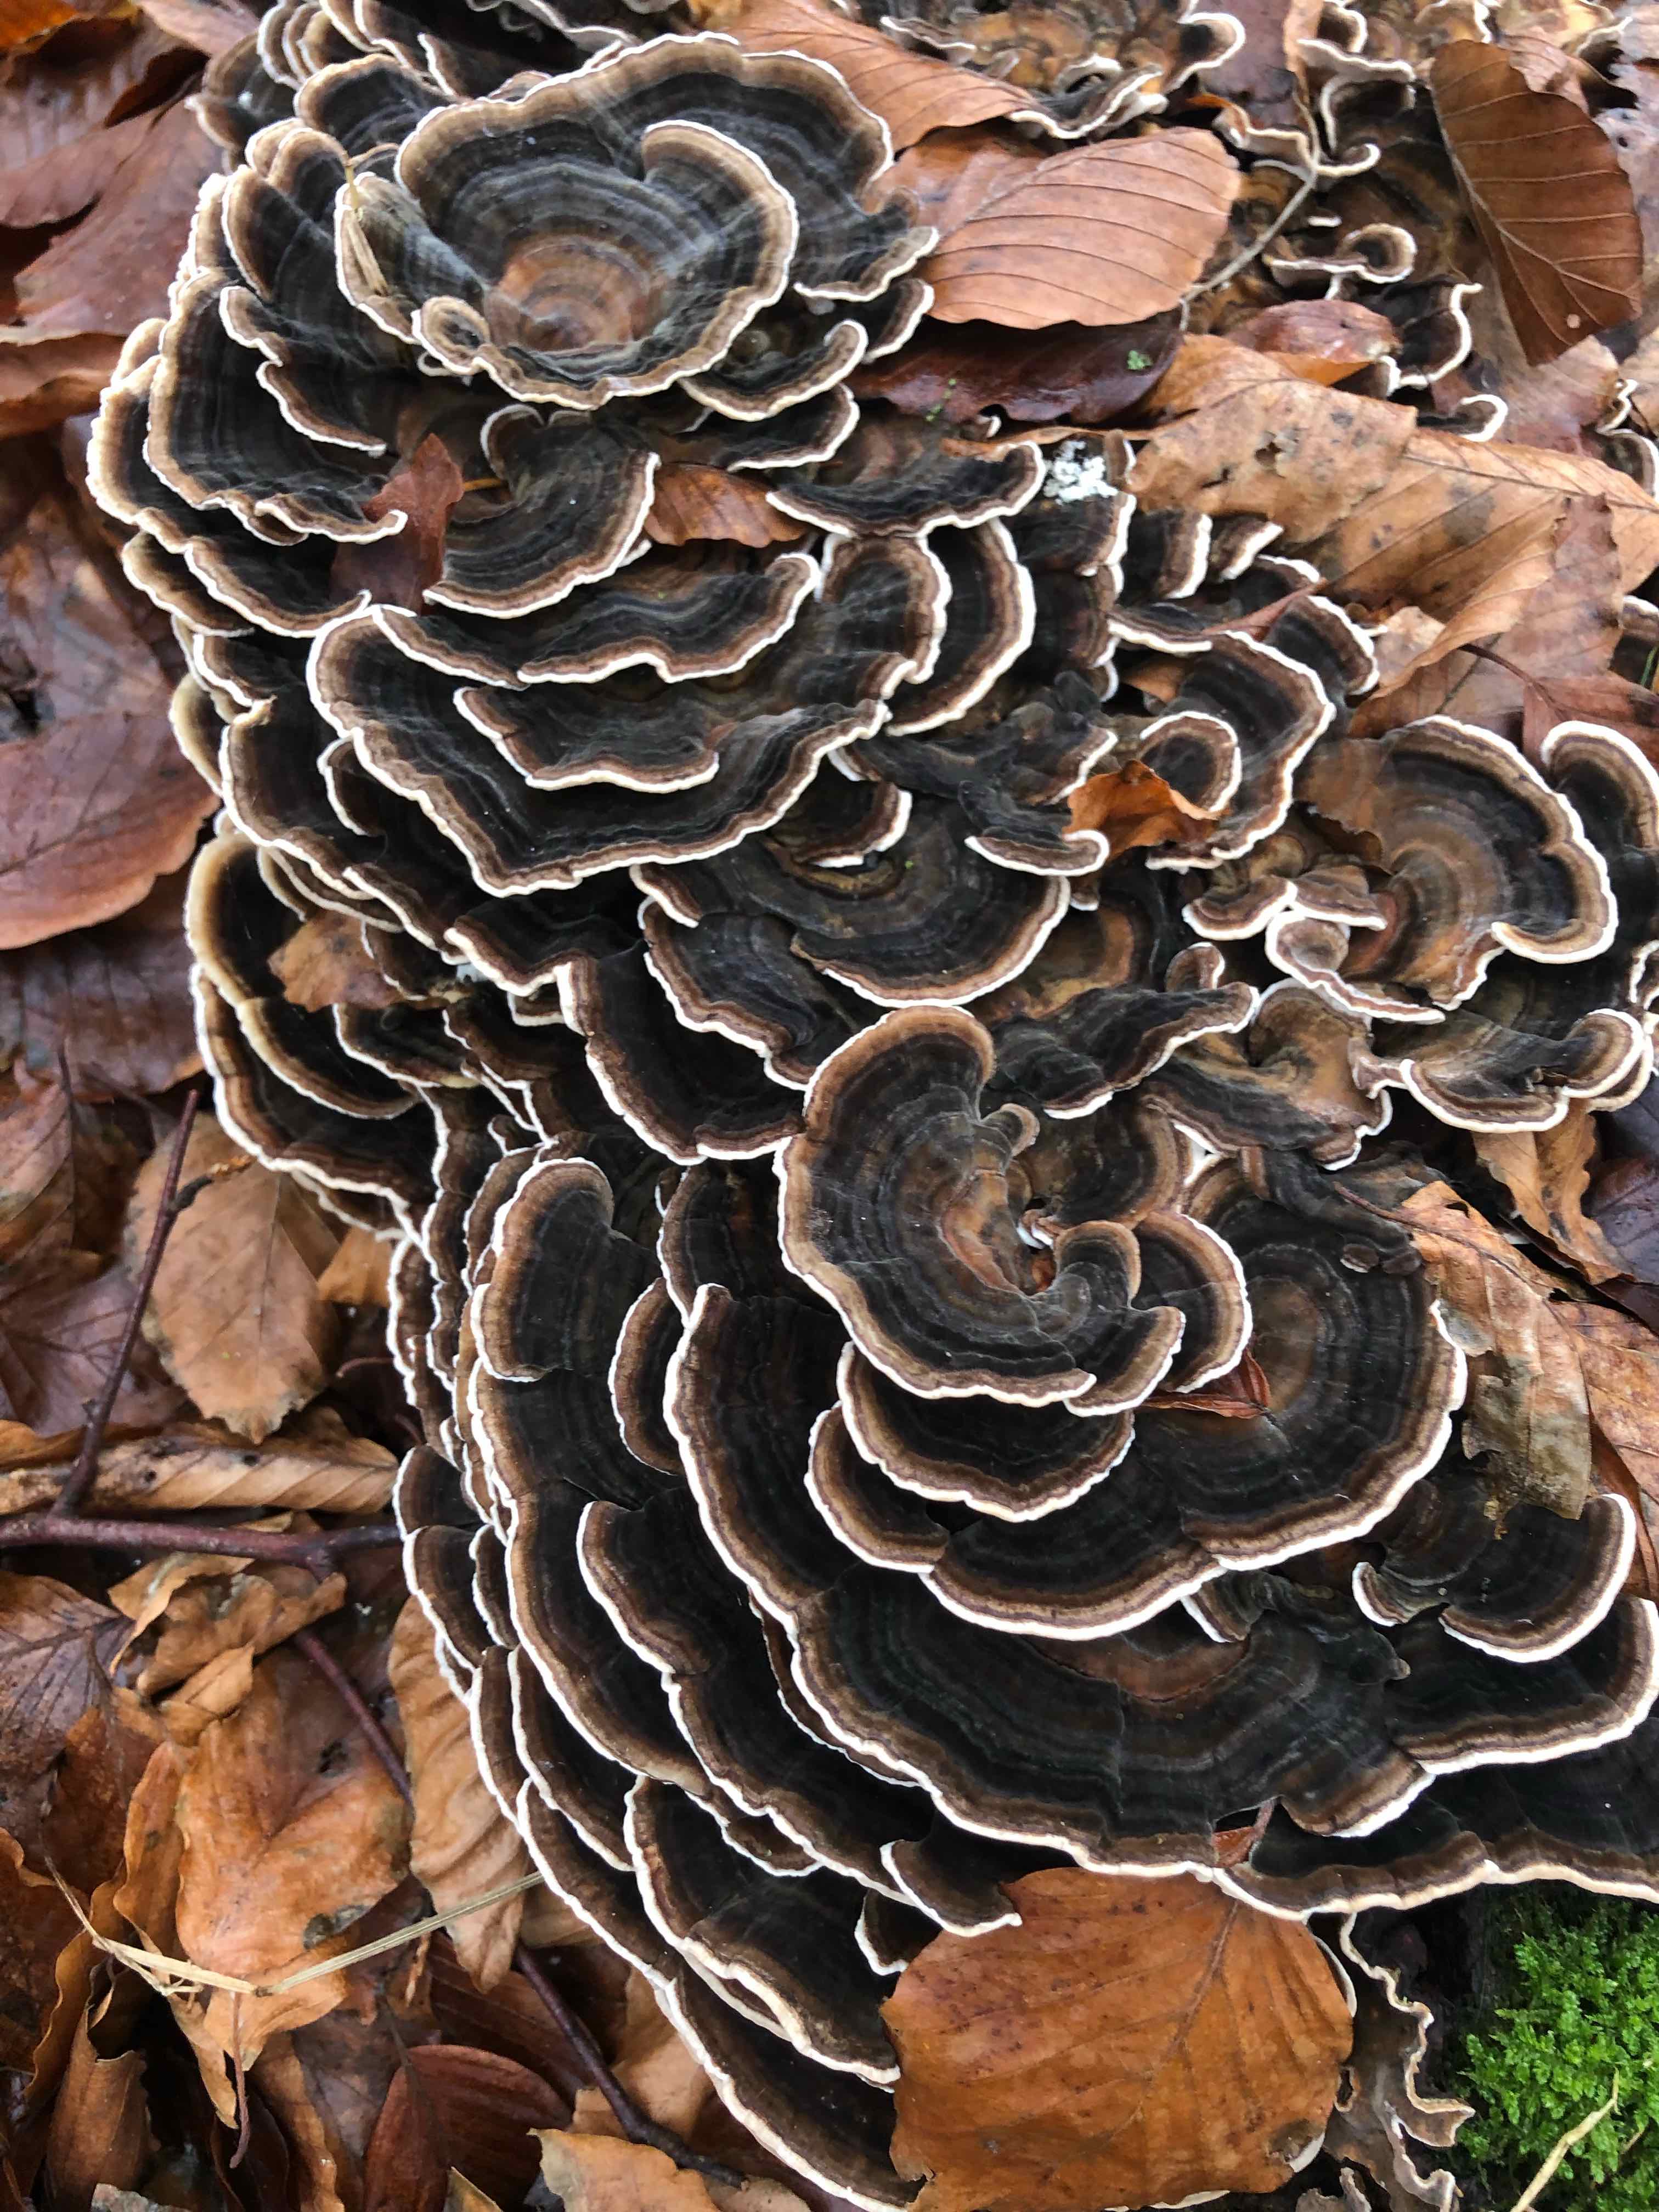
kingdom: Fungi
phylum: Basidiomycota
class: Agaricomycetes
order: Polyporales
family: Polyporaceae
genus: Trametes
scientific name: Trametes versicolor
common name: broget læderporesvamp
